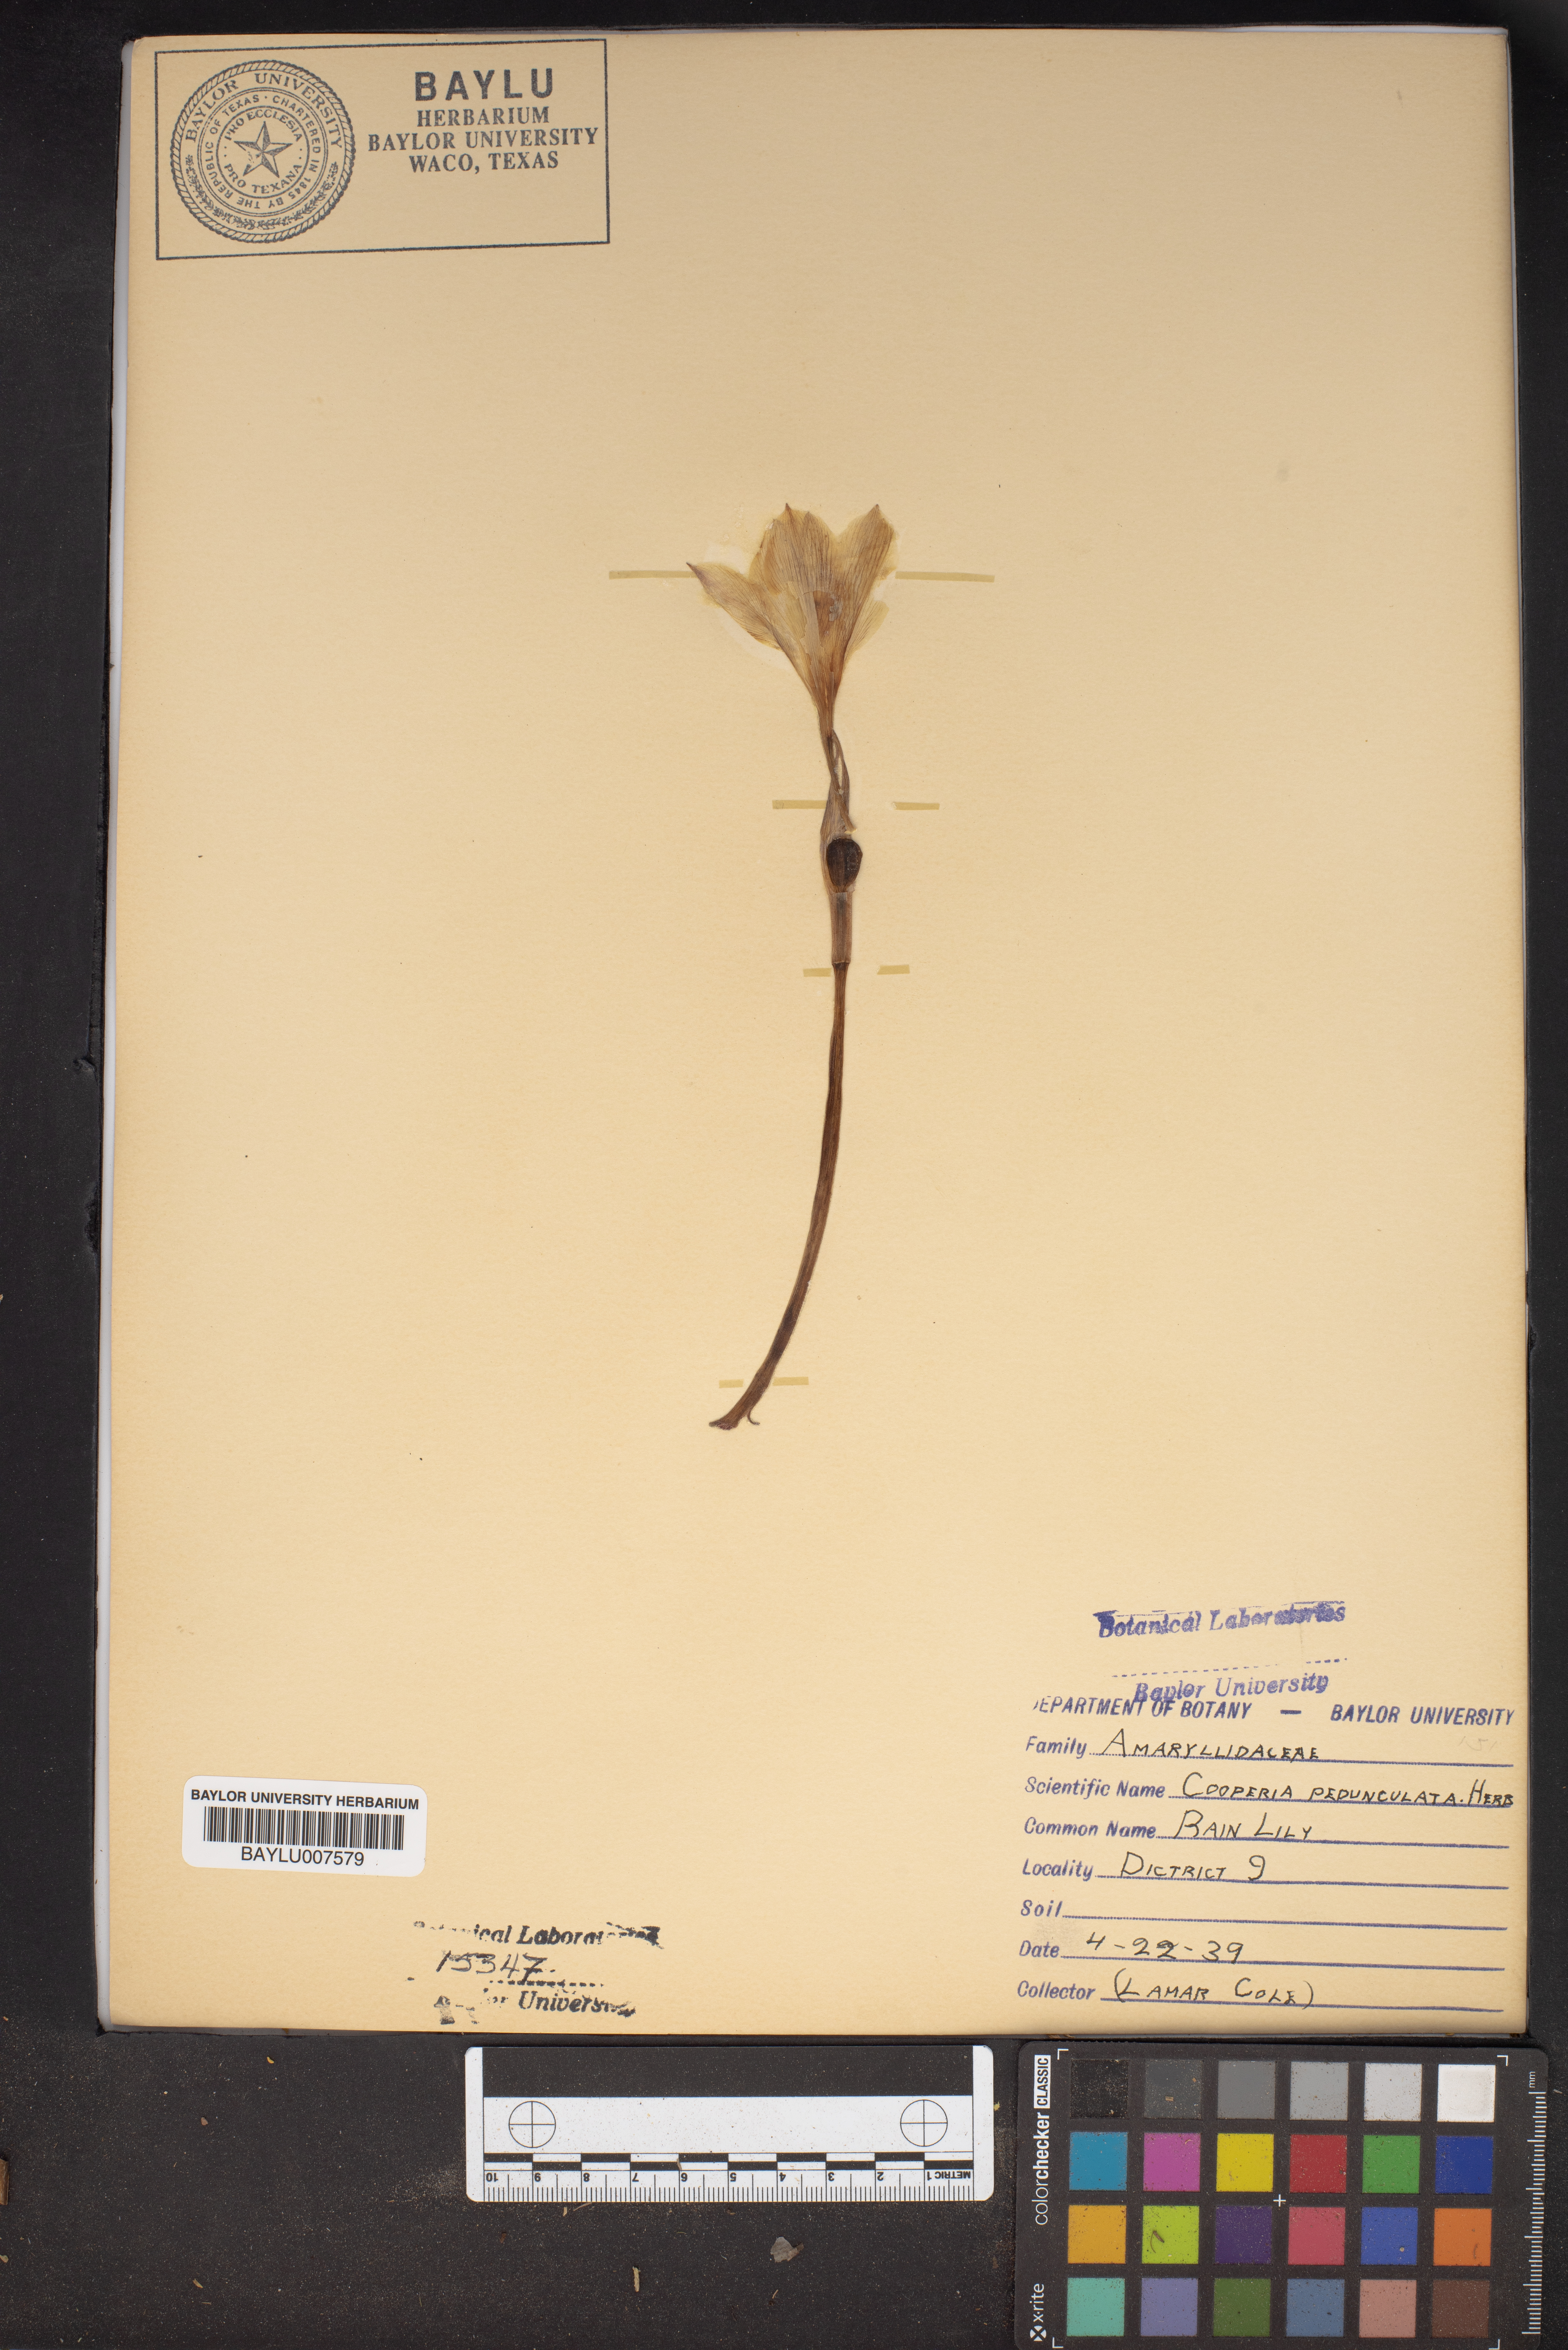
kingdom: Plantae
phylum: Tracheophyta
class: Liliopsida
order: Asparagales
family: Amaryllidaceae
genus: Zephyranthes
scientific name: Zephyranthes drummondii
